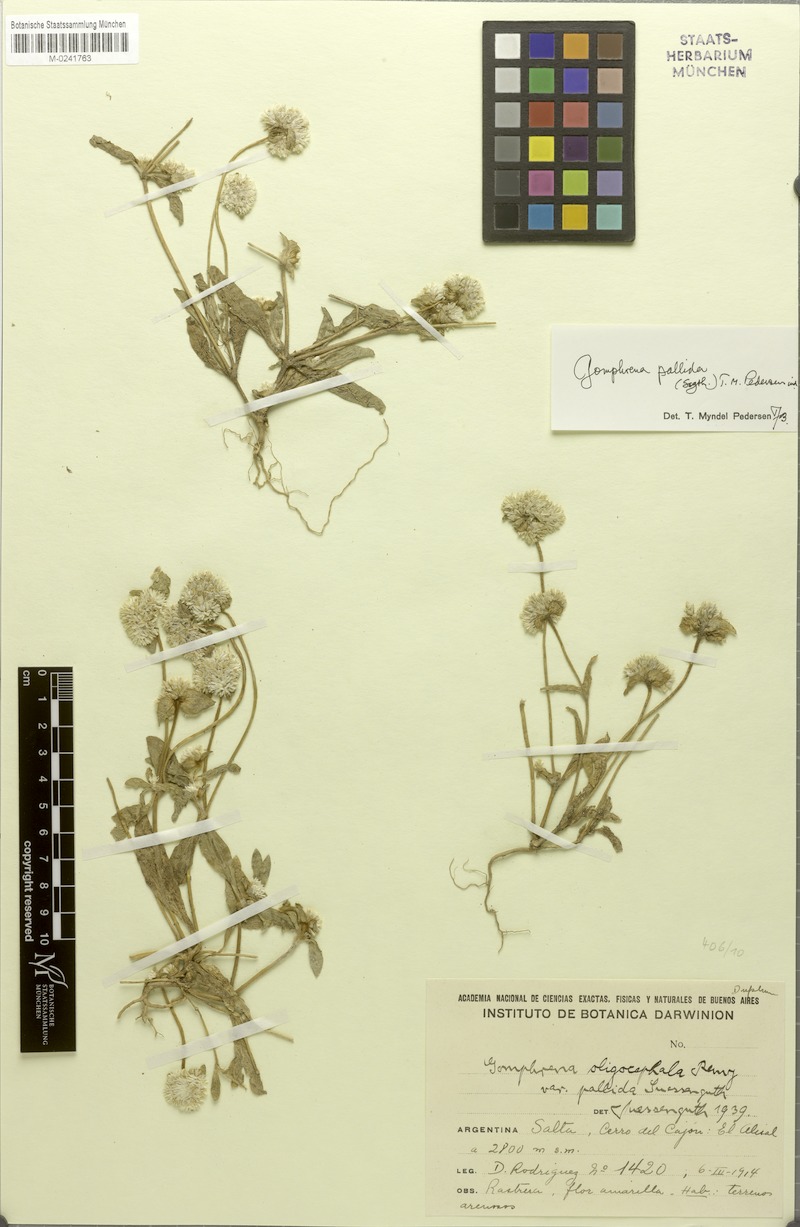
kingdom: Plantae
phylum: Tracheophyta
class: Magnoliopsida
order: Caryophyllales
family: Amaranthaceae
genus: Gomphrena
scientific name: Gomphrena pallida
